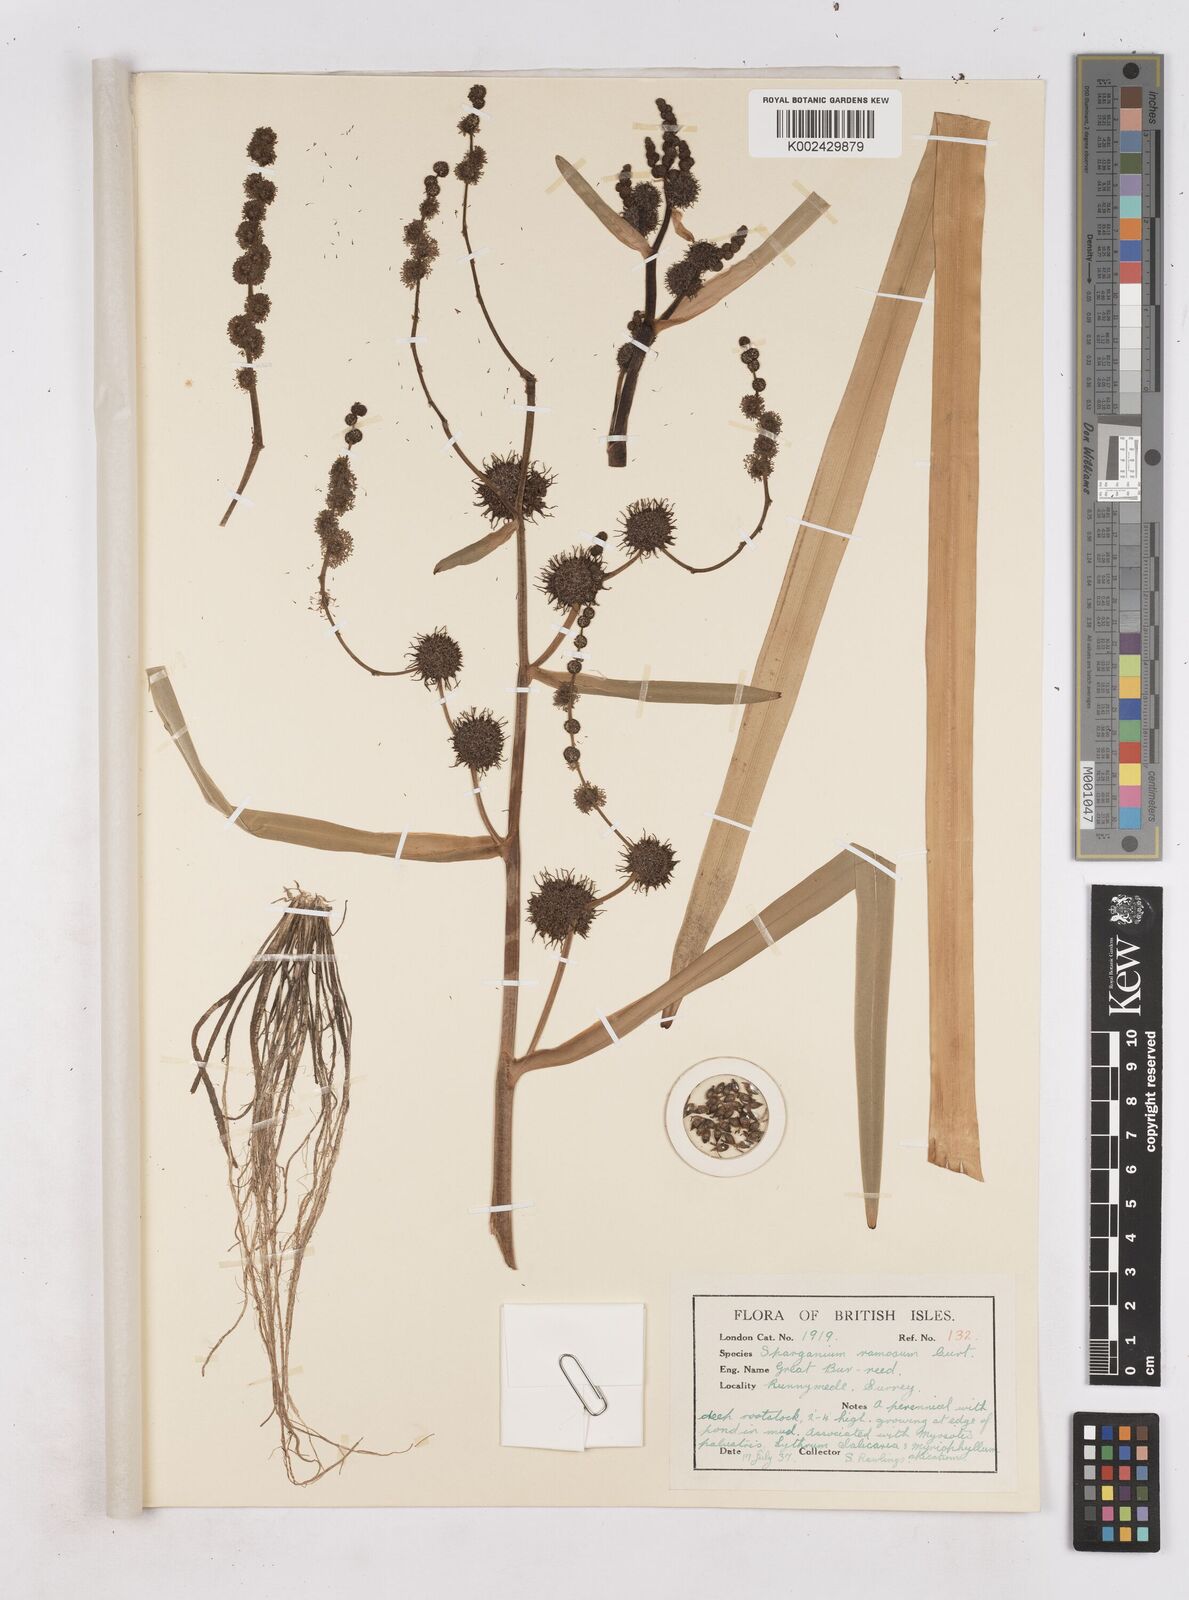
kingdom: Plantae
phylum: Tracheophyta
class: Liliopsida
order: Poales
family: Typhaceae
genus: Sparganium
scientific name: Sparganium erectum
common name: Branched bur-reed
